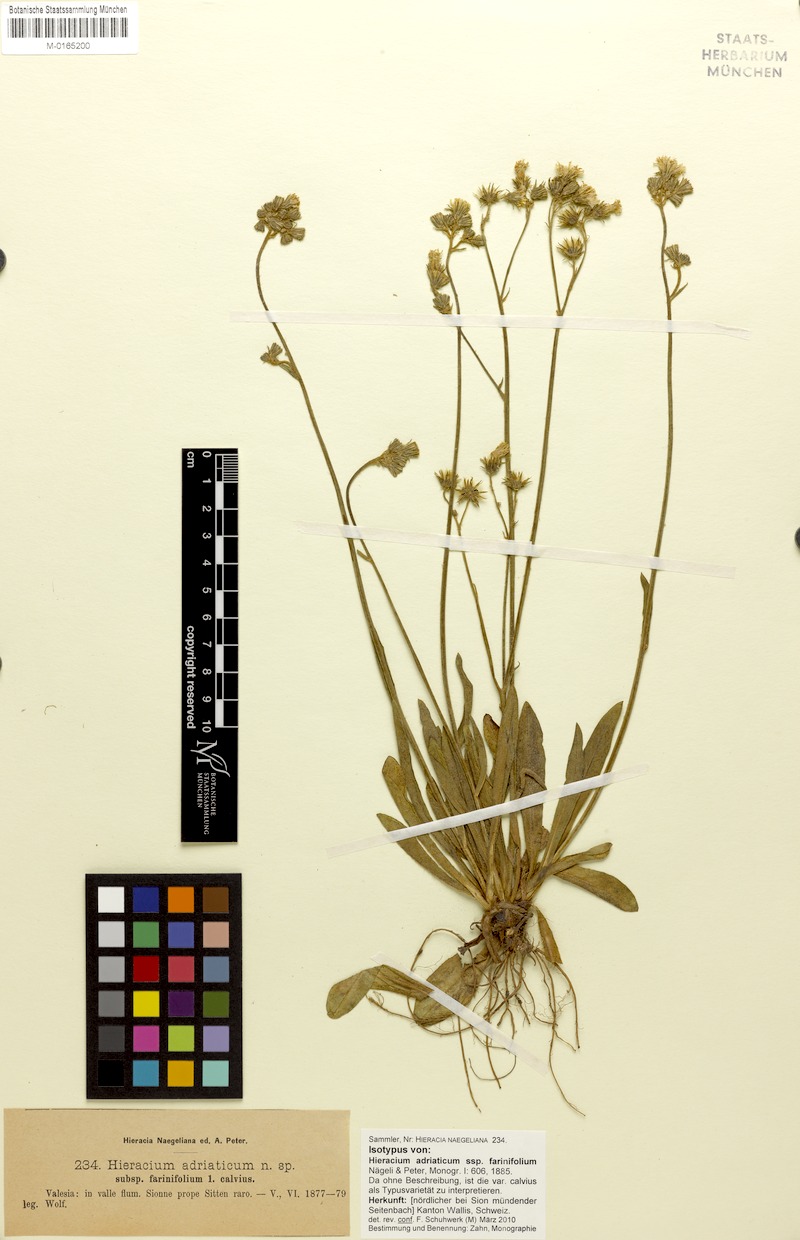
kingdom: Plantae
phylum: Tracheophyta
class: Magnoliopsida
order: Asterales
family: Asteraceae
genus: Pilosella
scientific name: Pilosella visianii
